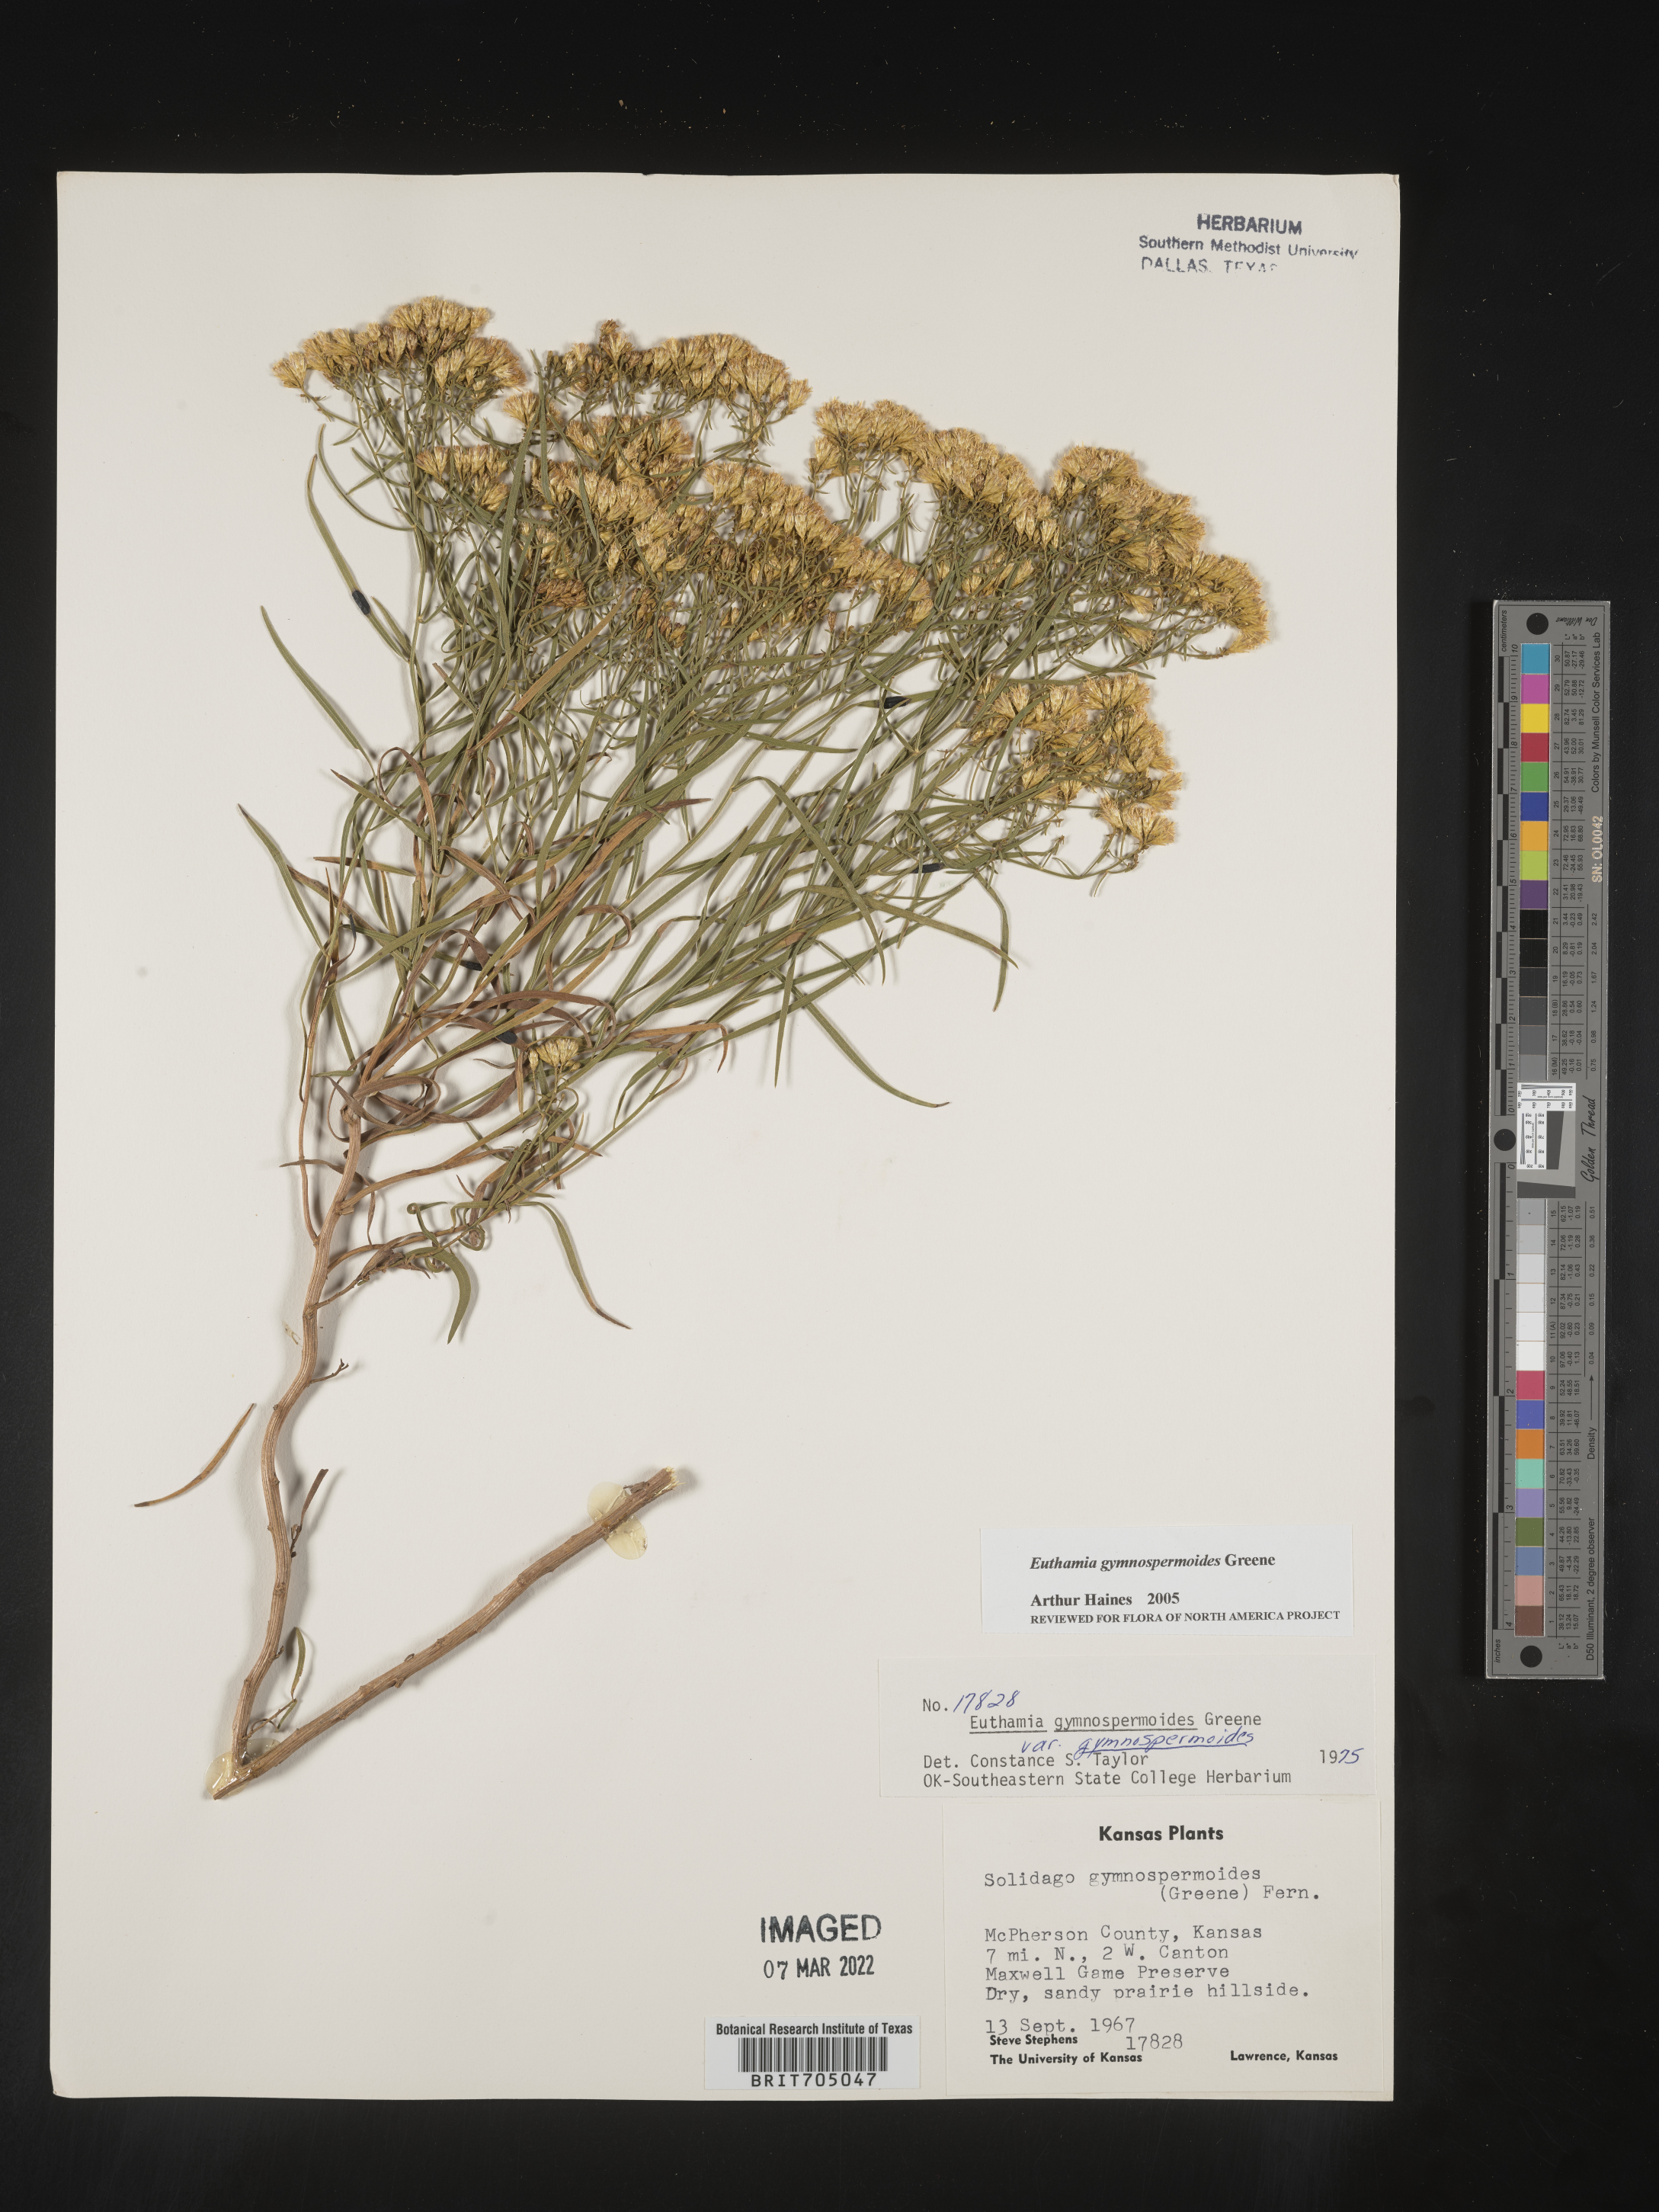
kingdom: Plantae
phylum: Tracheophyta
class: Magnoliopsida
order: Asterales
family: Asteraceae
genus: Euthamia
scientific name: Euthamia gymnospermoides
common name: Great plains goldentop
